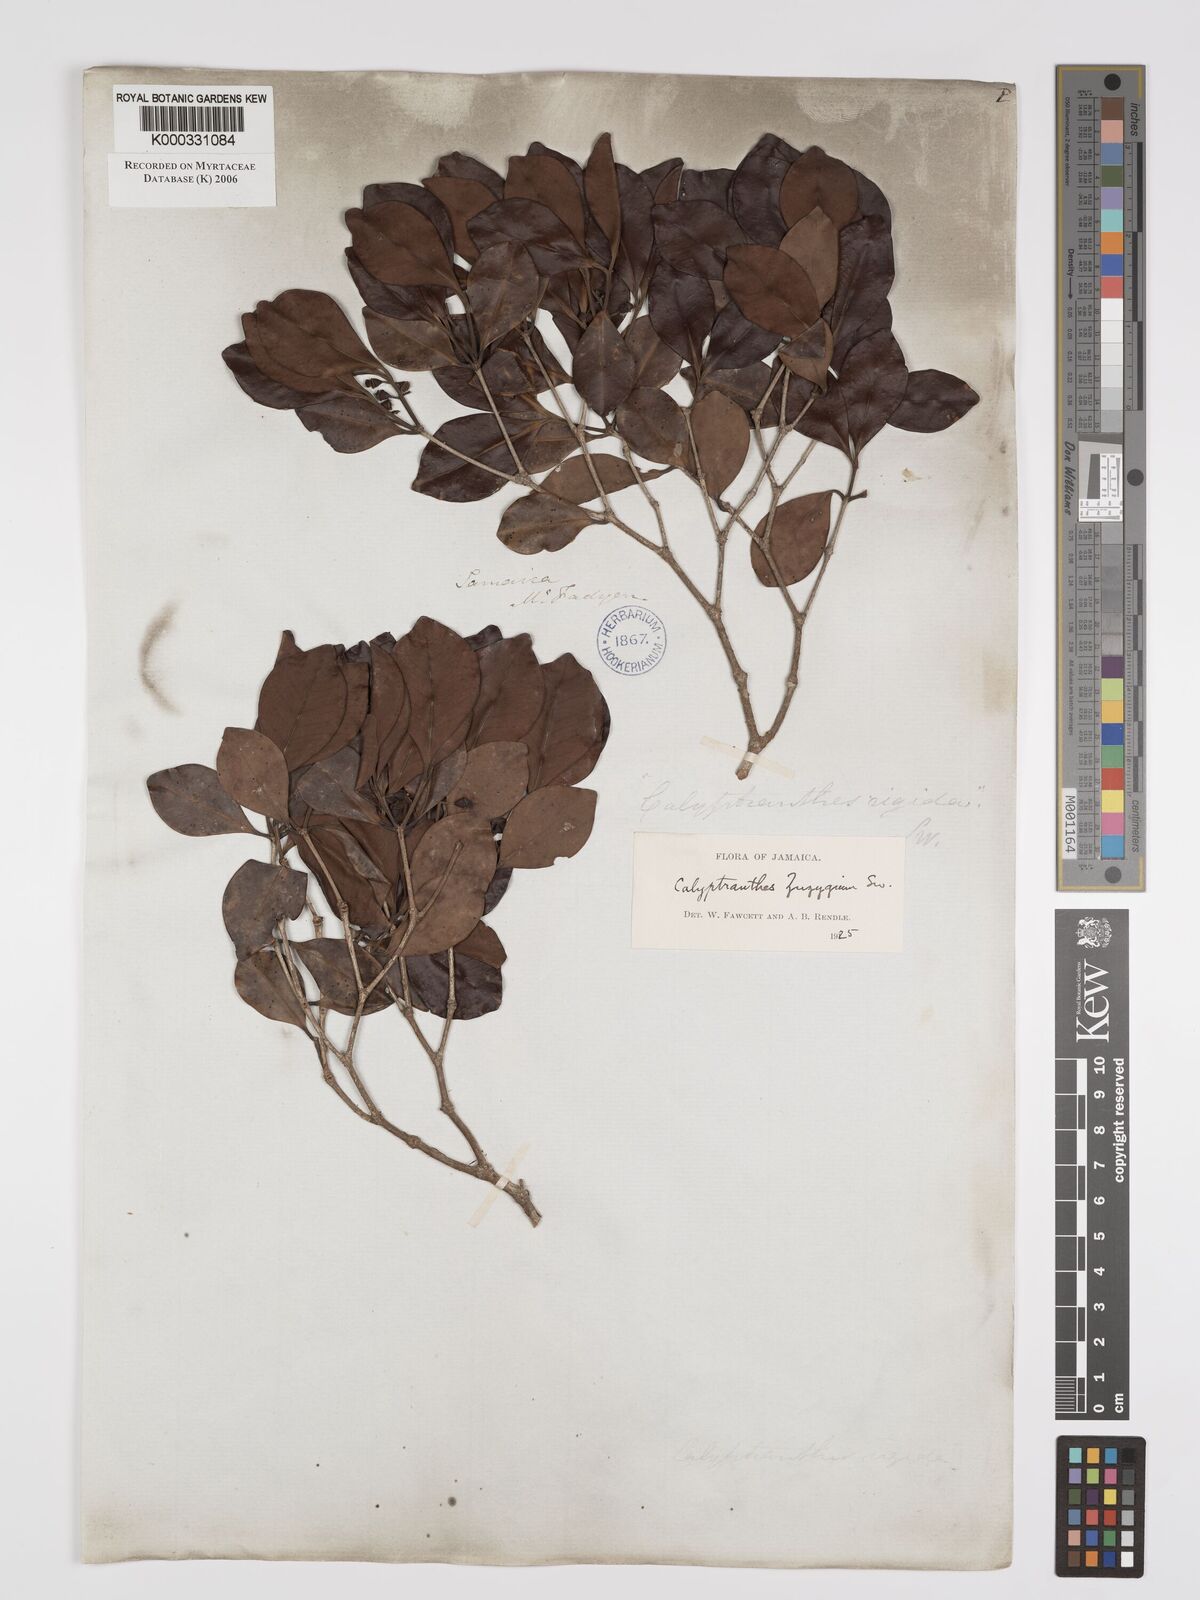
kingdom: Plantae
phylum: Tracheophyta
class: Magnoliopsida
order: Myrtales
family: Myrtaceae
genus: Myrcia
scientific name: Myrcia chytraculia
